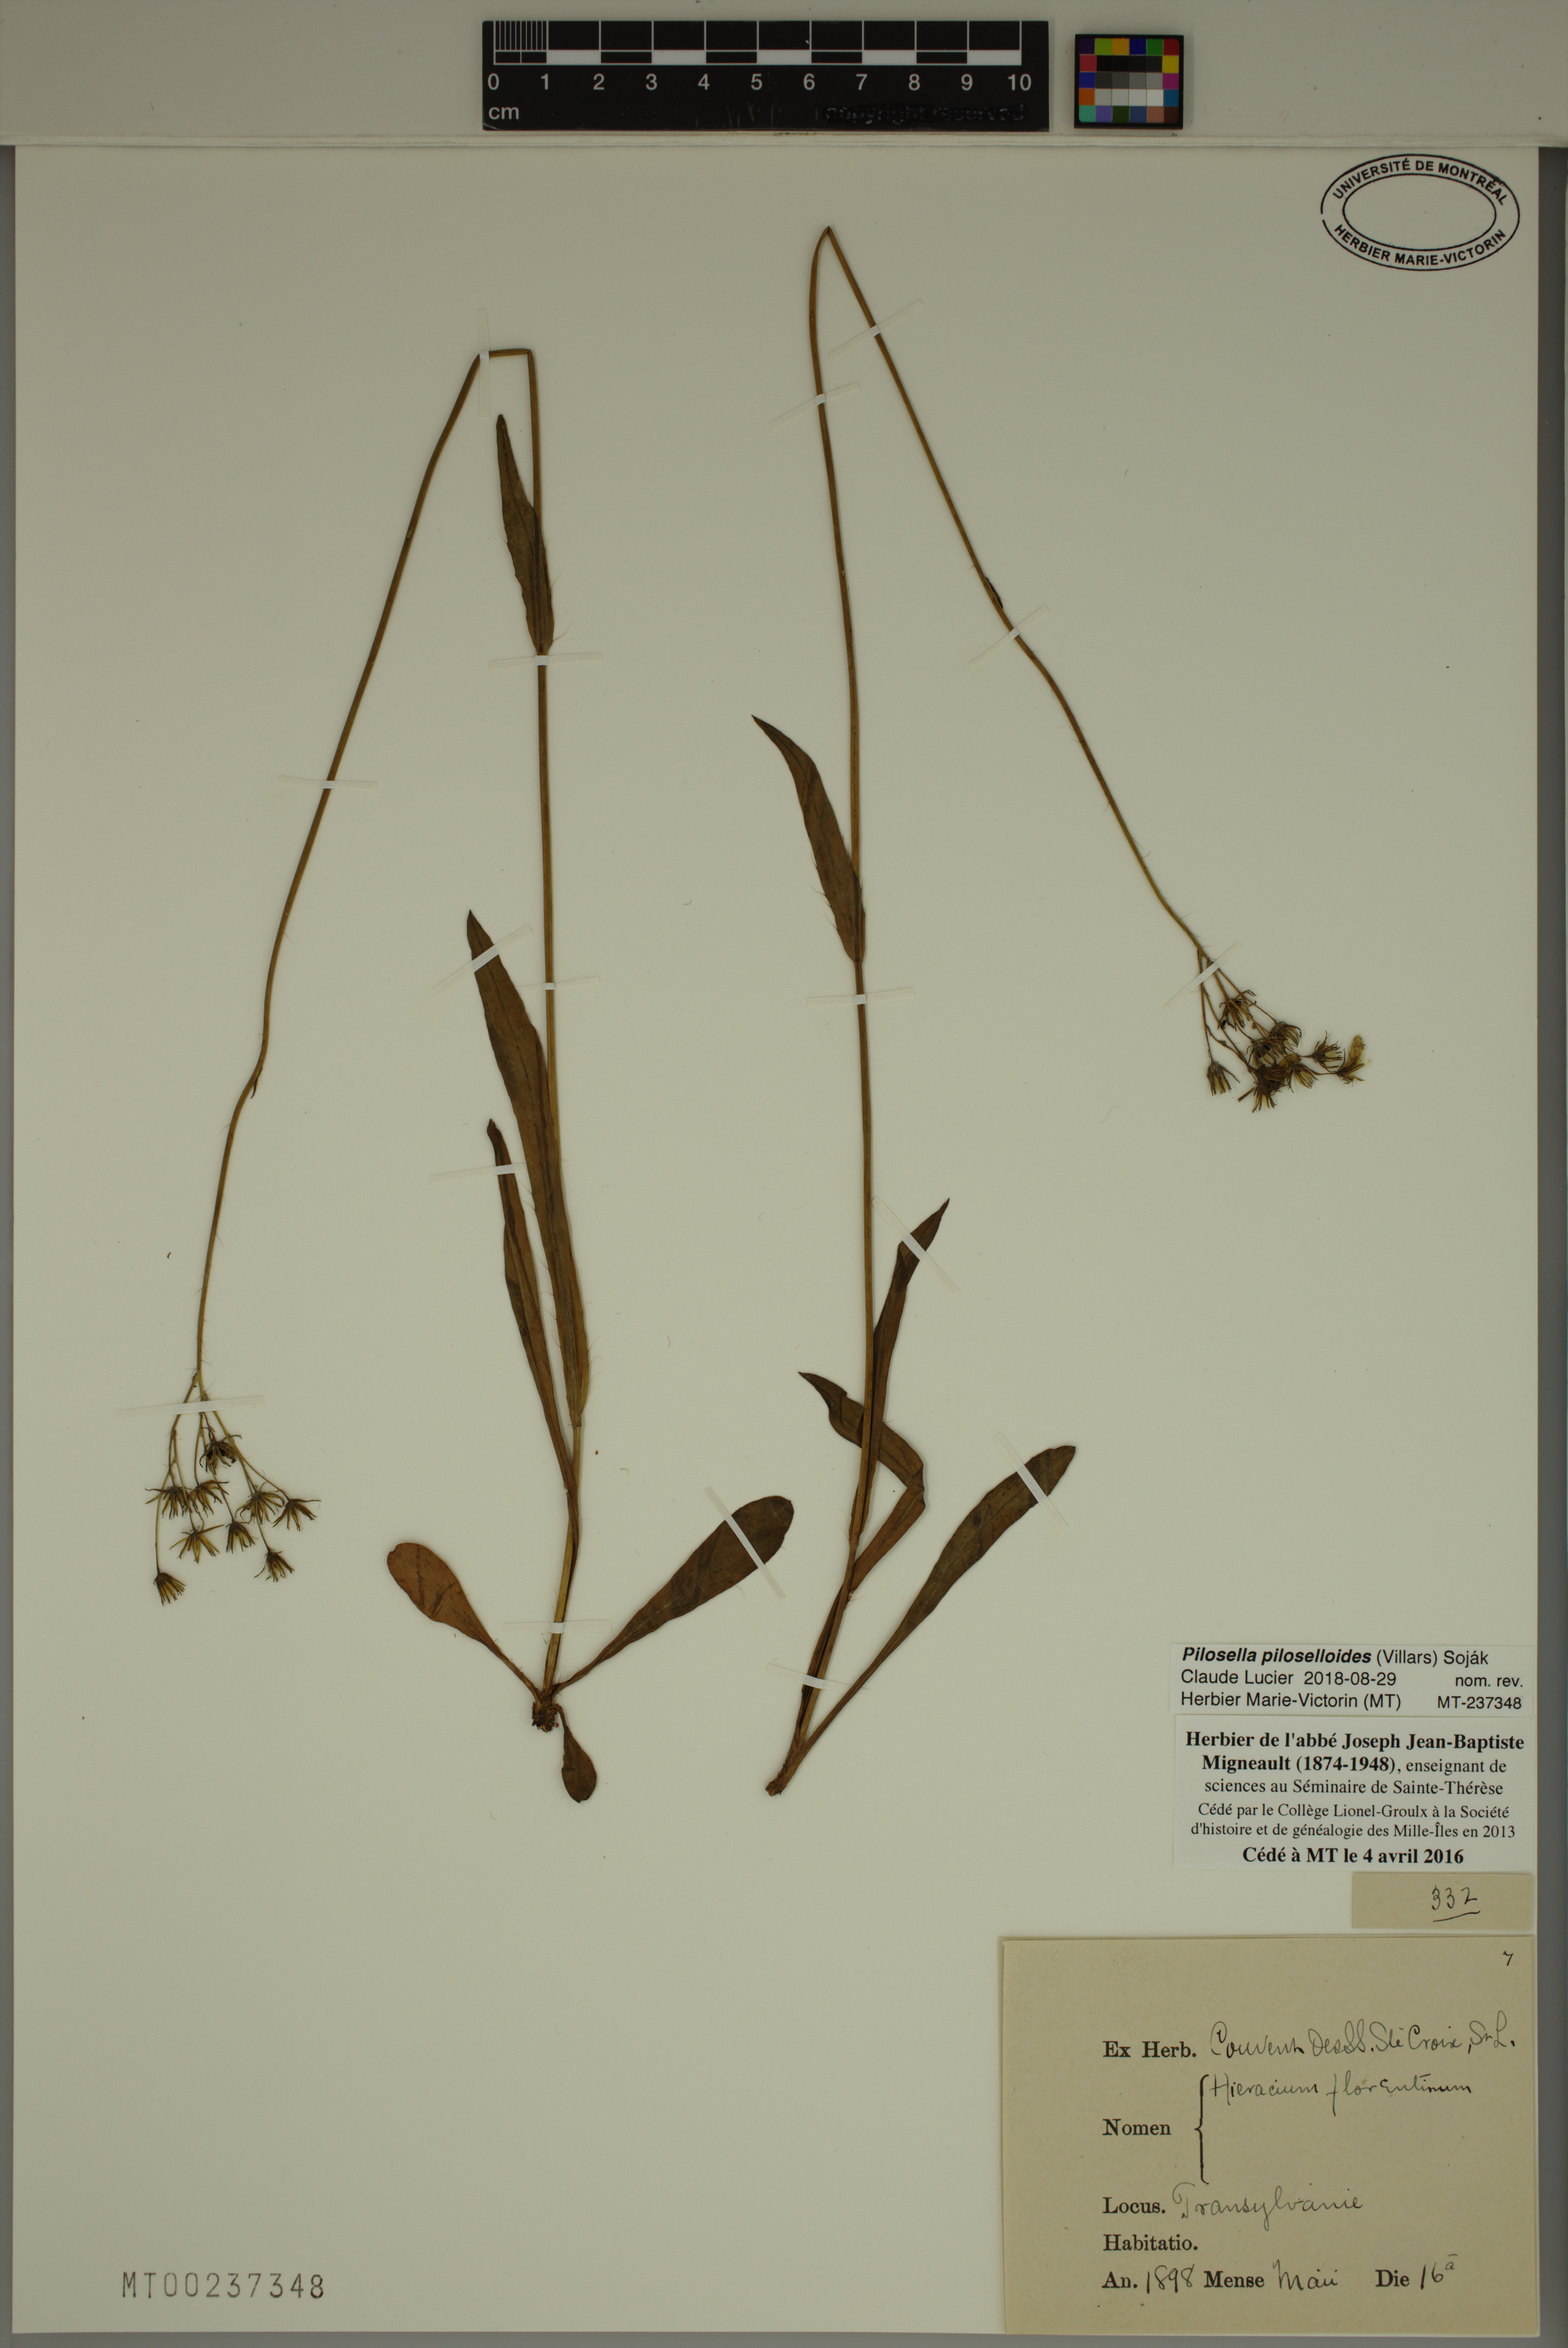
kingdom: Plantae
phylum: Tracheophyta
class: Magnoliopsida
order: Asterales
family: Asteraceae
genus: Pilosella
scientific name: Pilosella piloselloides
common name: Glaucous king-devil
